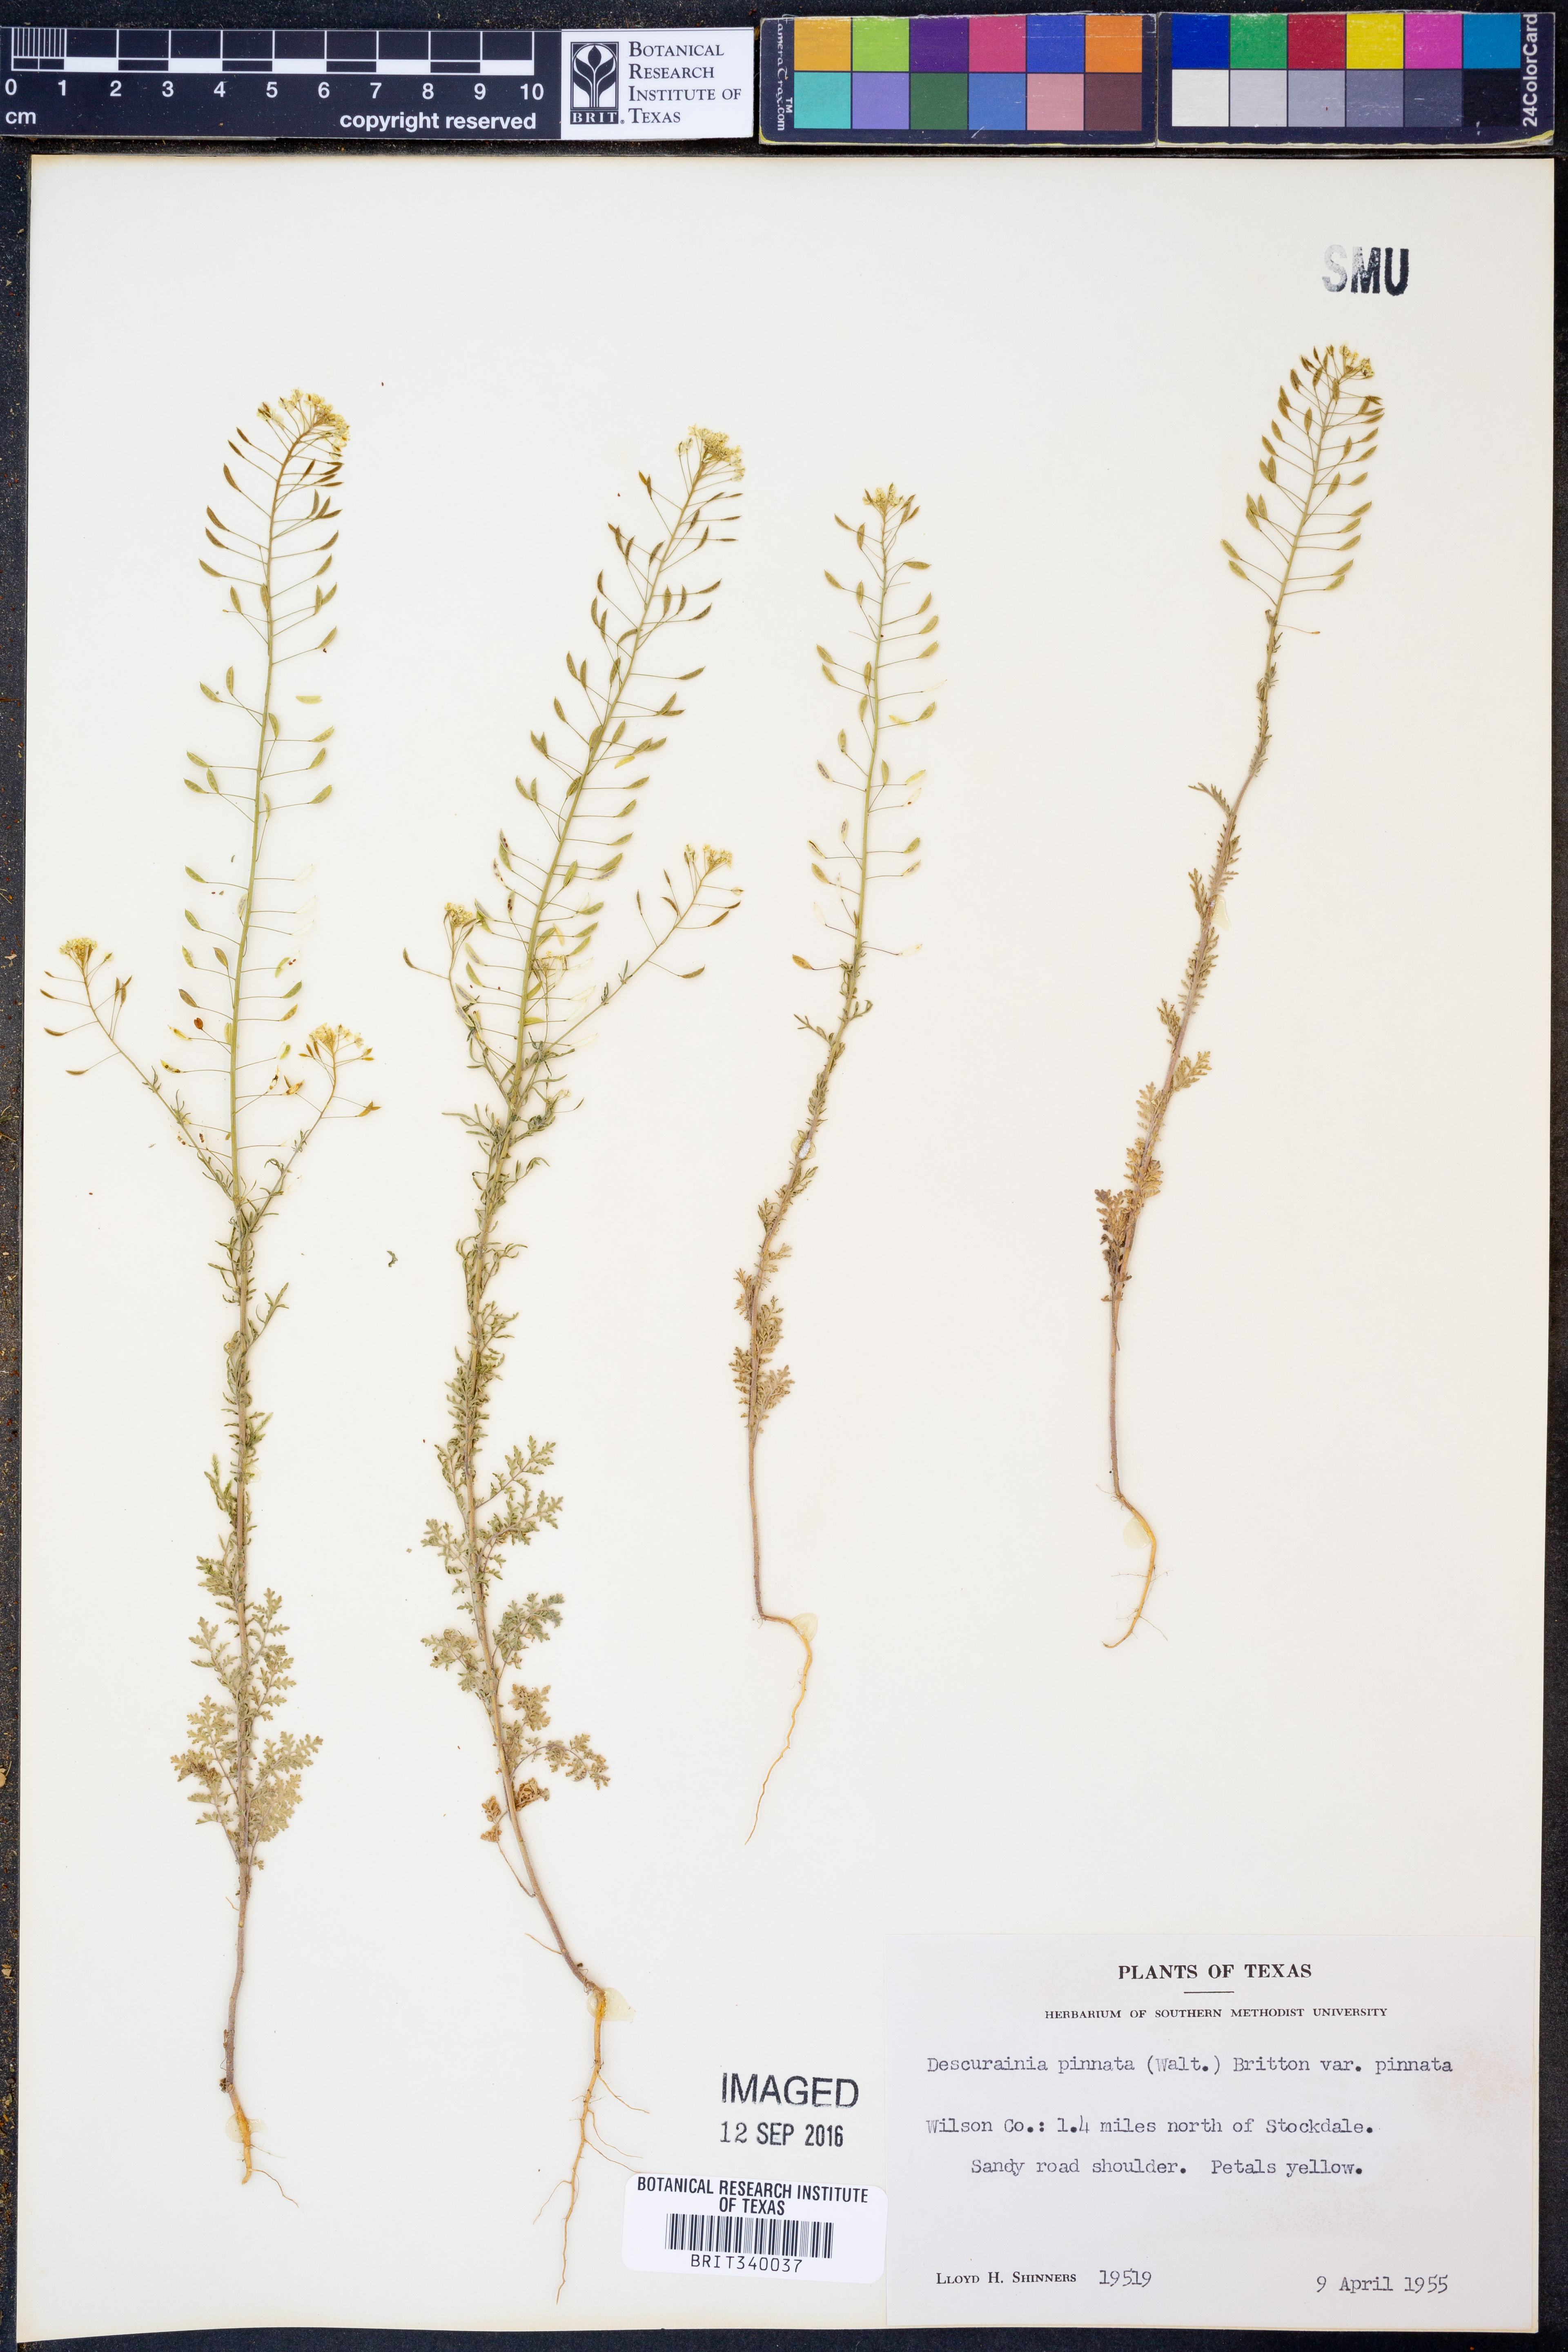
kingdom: Plantae
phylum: Tracheophyta
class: Magnoliopsida
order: Brassicales
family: Brassicaceae
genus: Descurainia
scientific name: Descurainia pinnata
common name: Western tansy mustard
